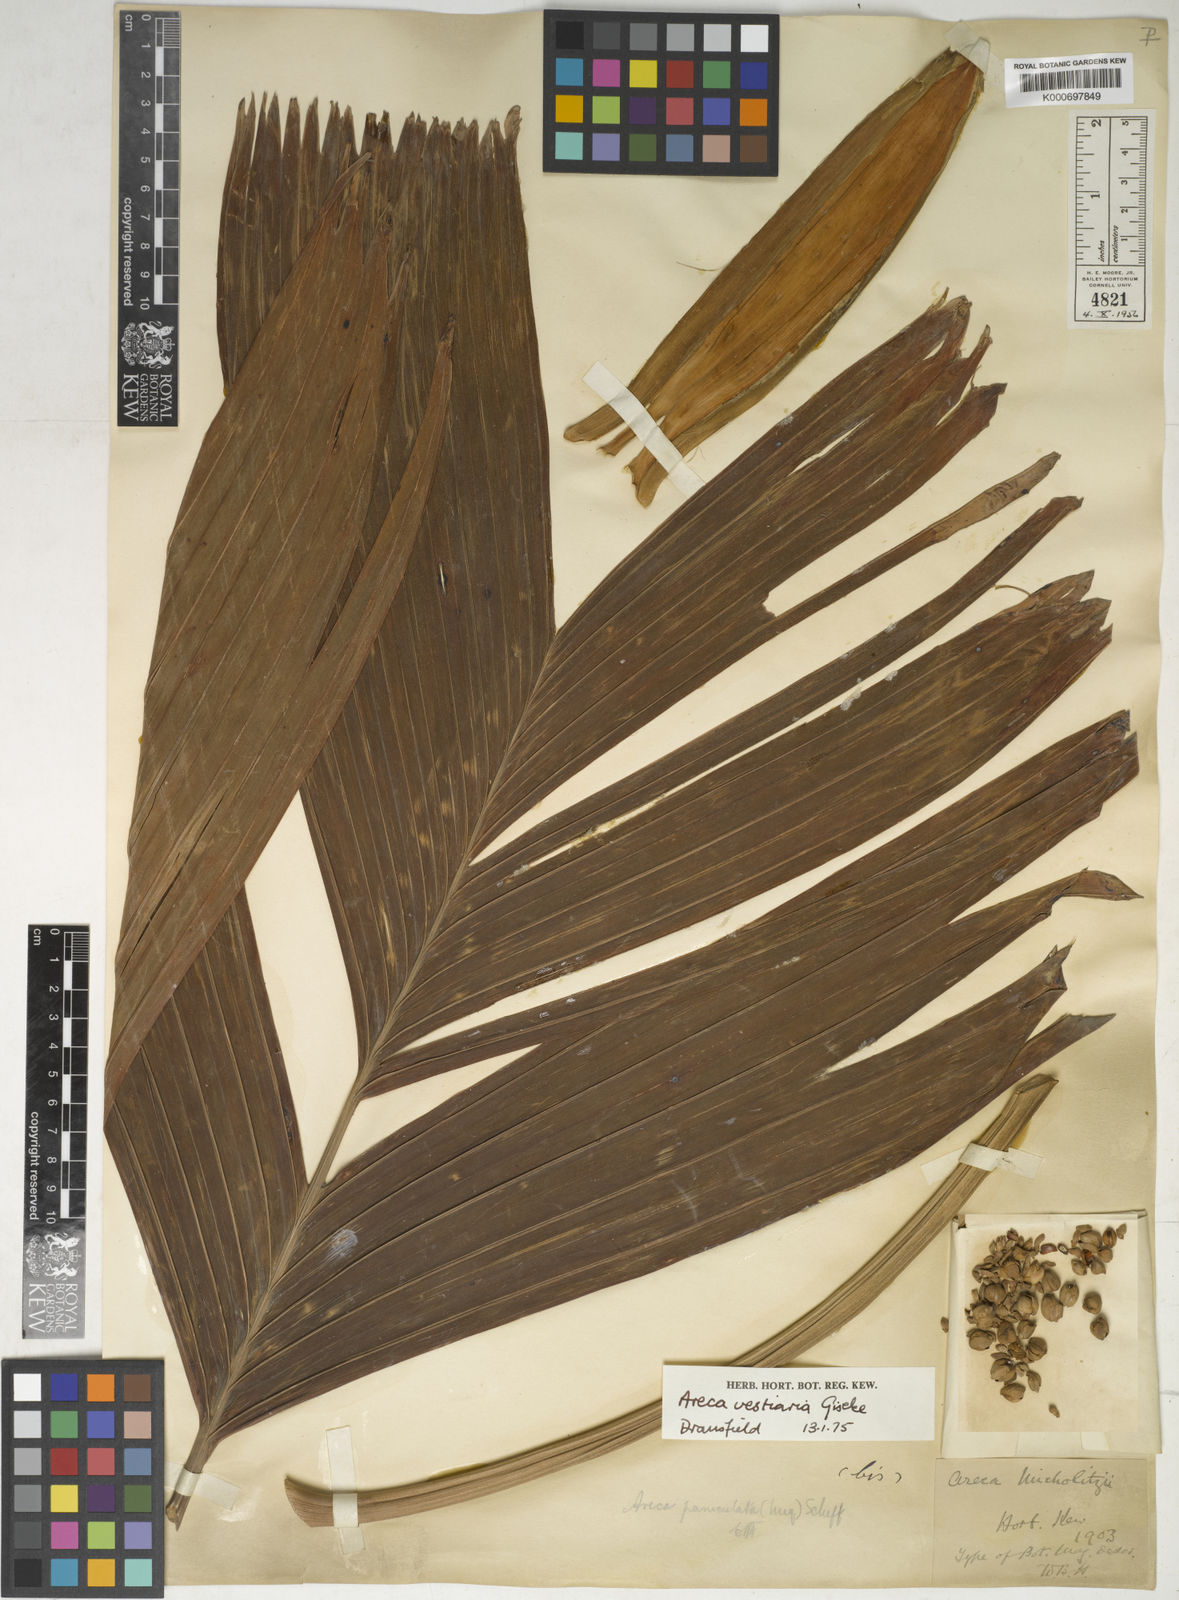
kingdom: Plantae
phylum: Tracheophyta
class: Liliopsida
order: Arecales
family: Arecaceae
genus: Areca
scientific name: Areca vestiaria
